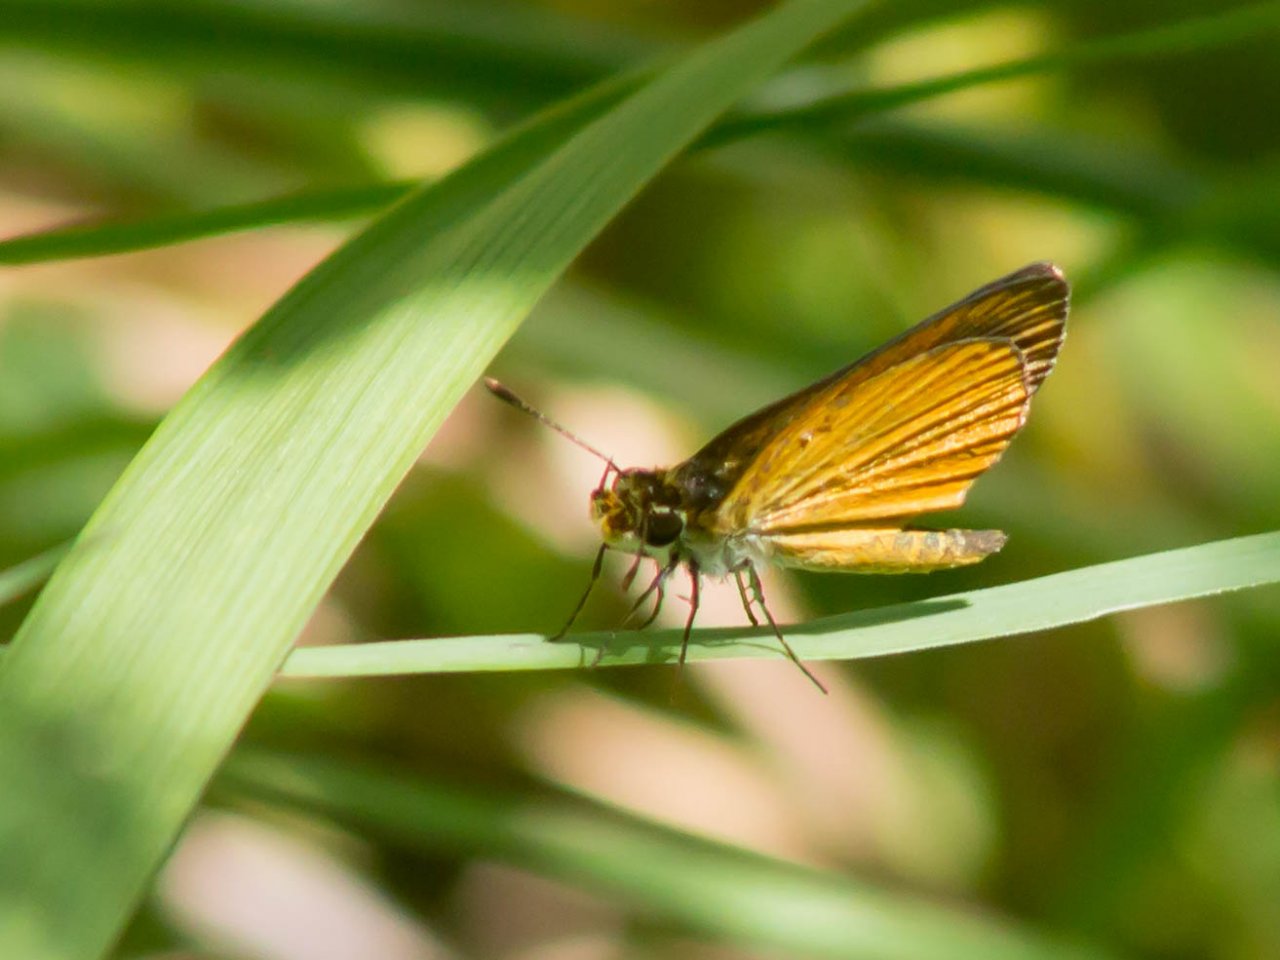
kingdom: Animalia
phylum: Arthropoda
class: Insecta
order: Lepidoptera
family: Hesperiidae
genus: Ancyloxypha
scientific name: Ancyloxypha numitor
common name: Least Skipper
